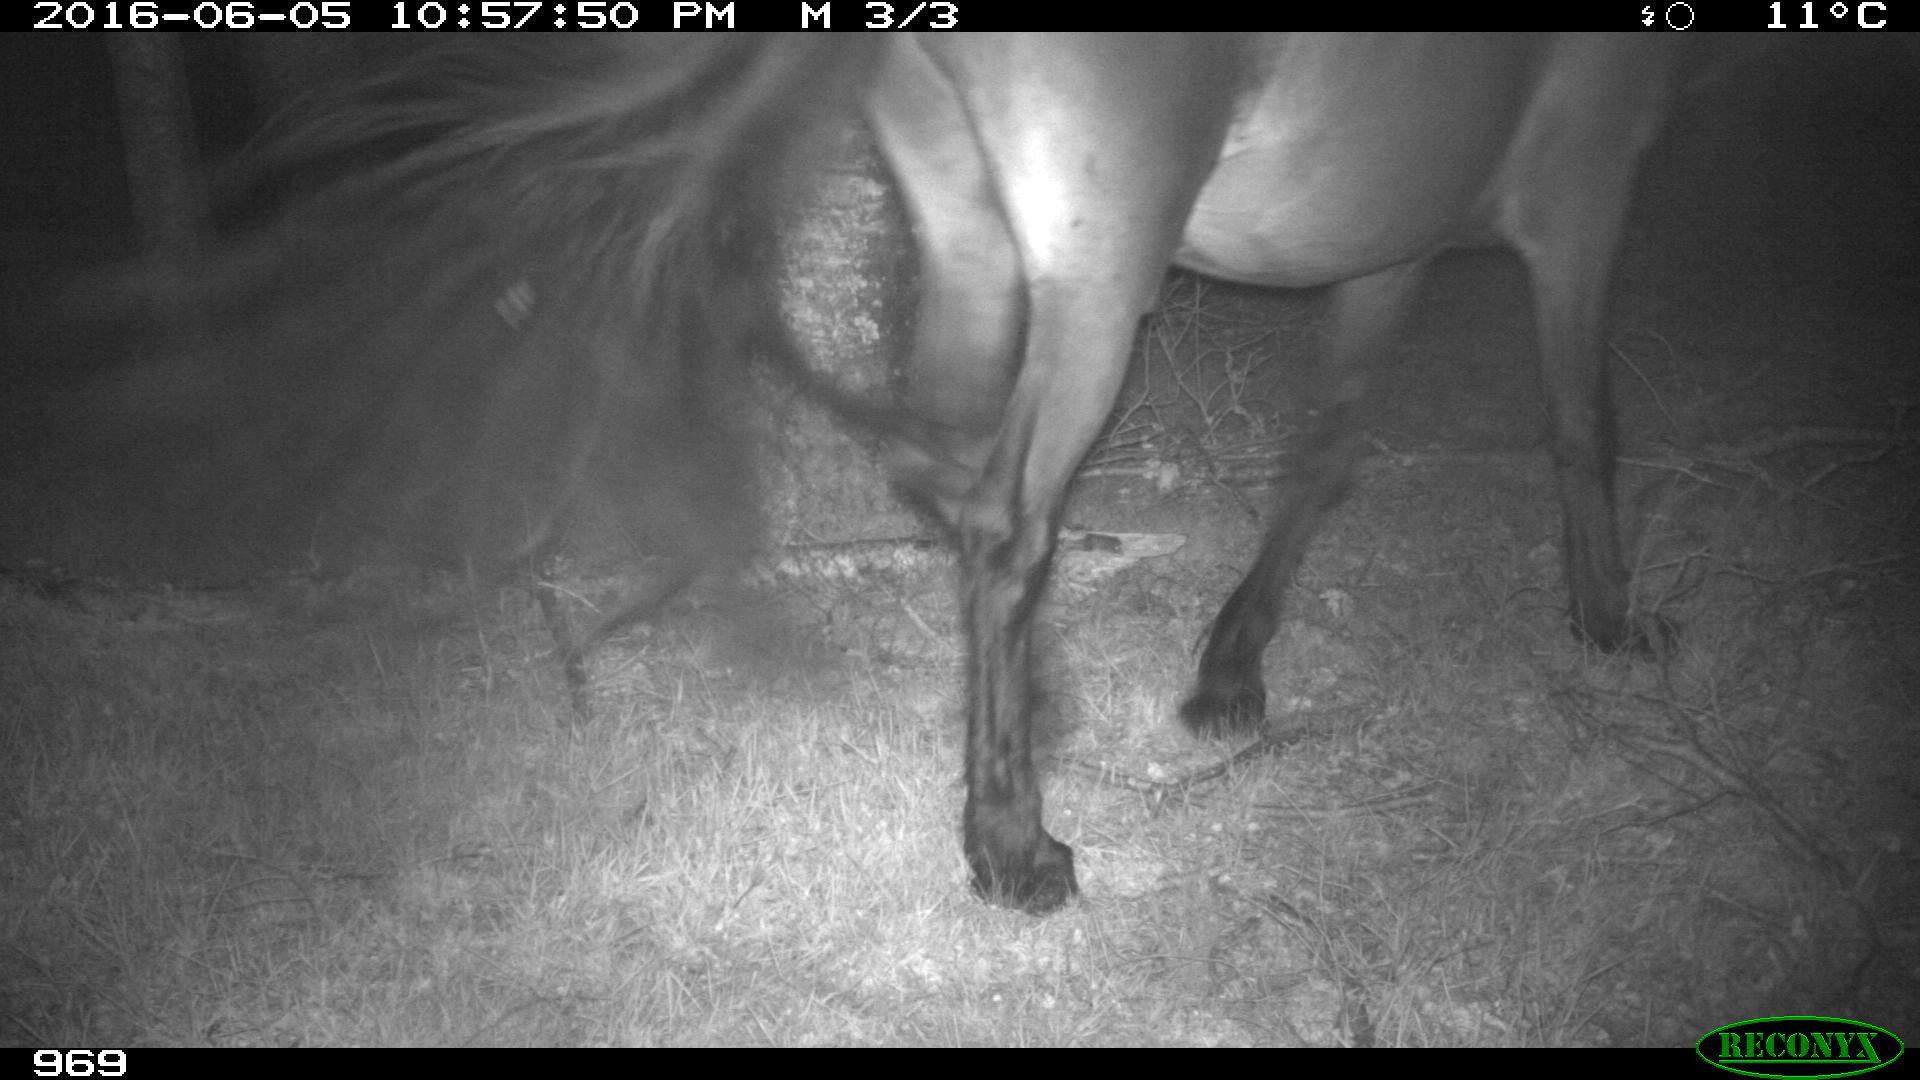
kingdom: Animalia
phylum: Chordata
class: Mammalia
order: Perissodactyla
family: Equidae
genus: Equus
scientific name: Equus caballus
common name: Horse
